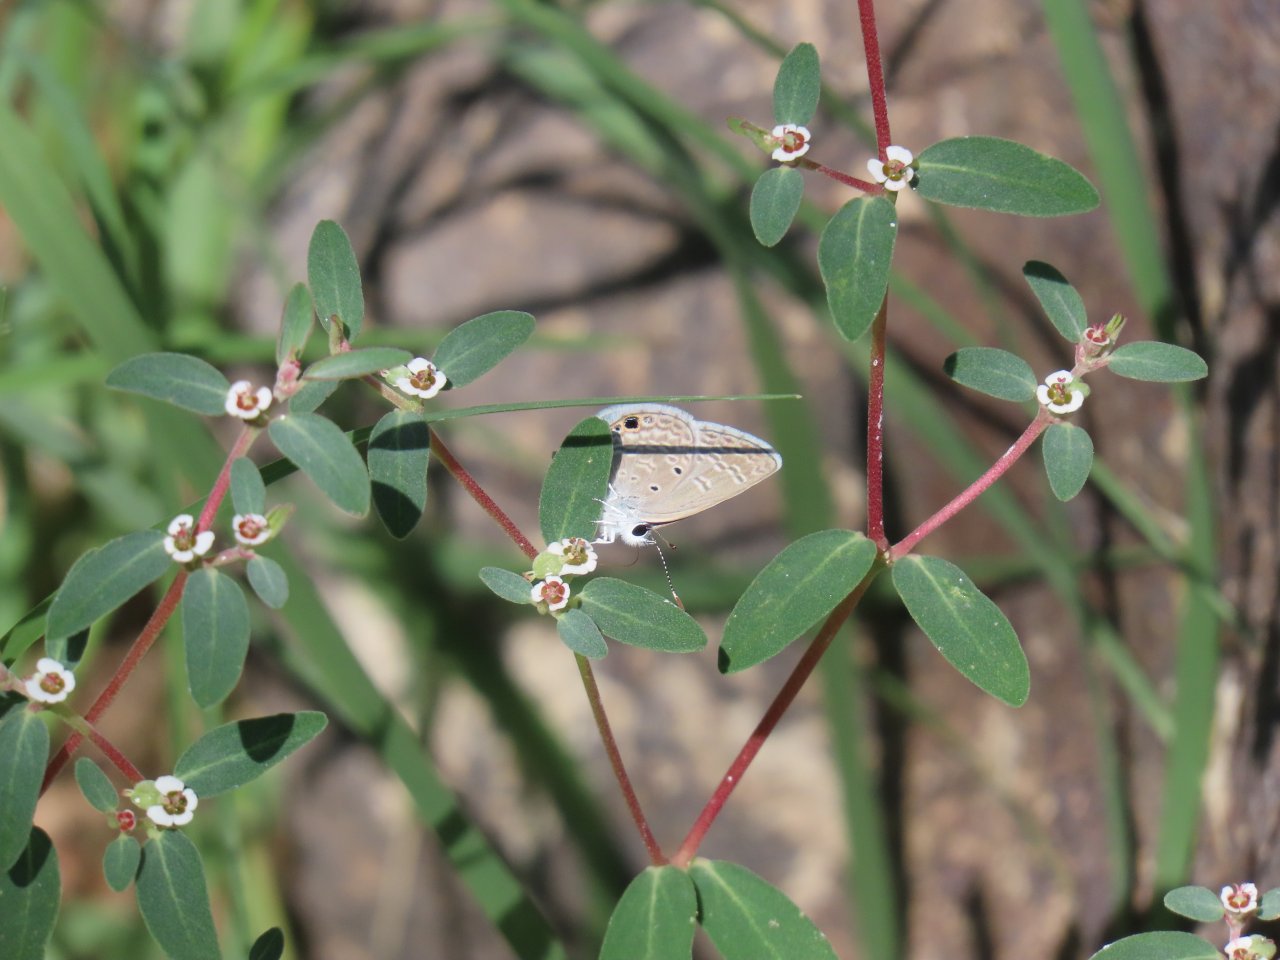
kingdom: Animalia
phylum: Arthropoda
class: Insecta
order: Lepidoptera
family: Lycaenidae
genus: Hemiargus
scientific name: Hemiargus ceraunus
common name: Ceraunus Blue
